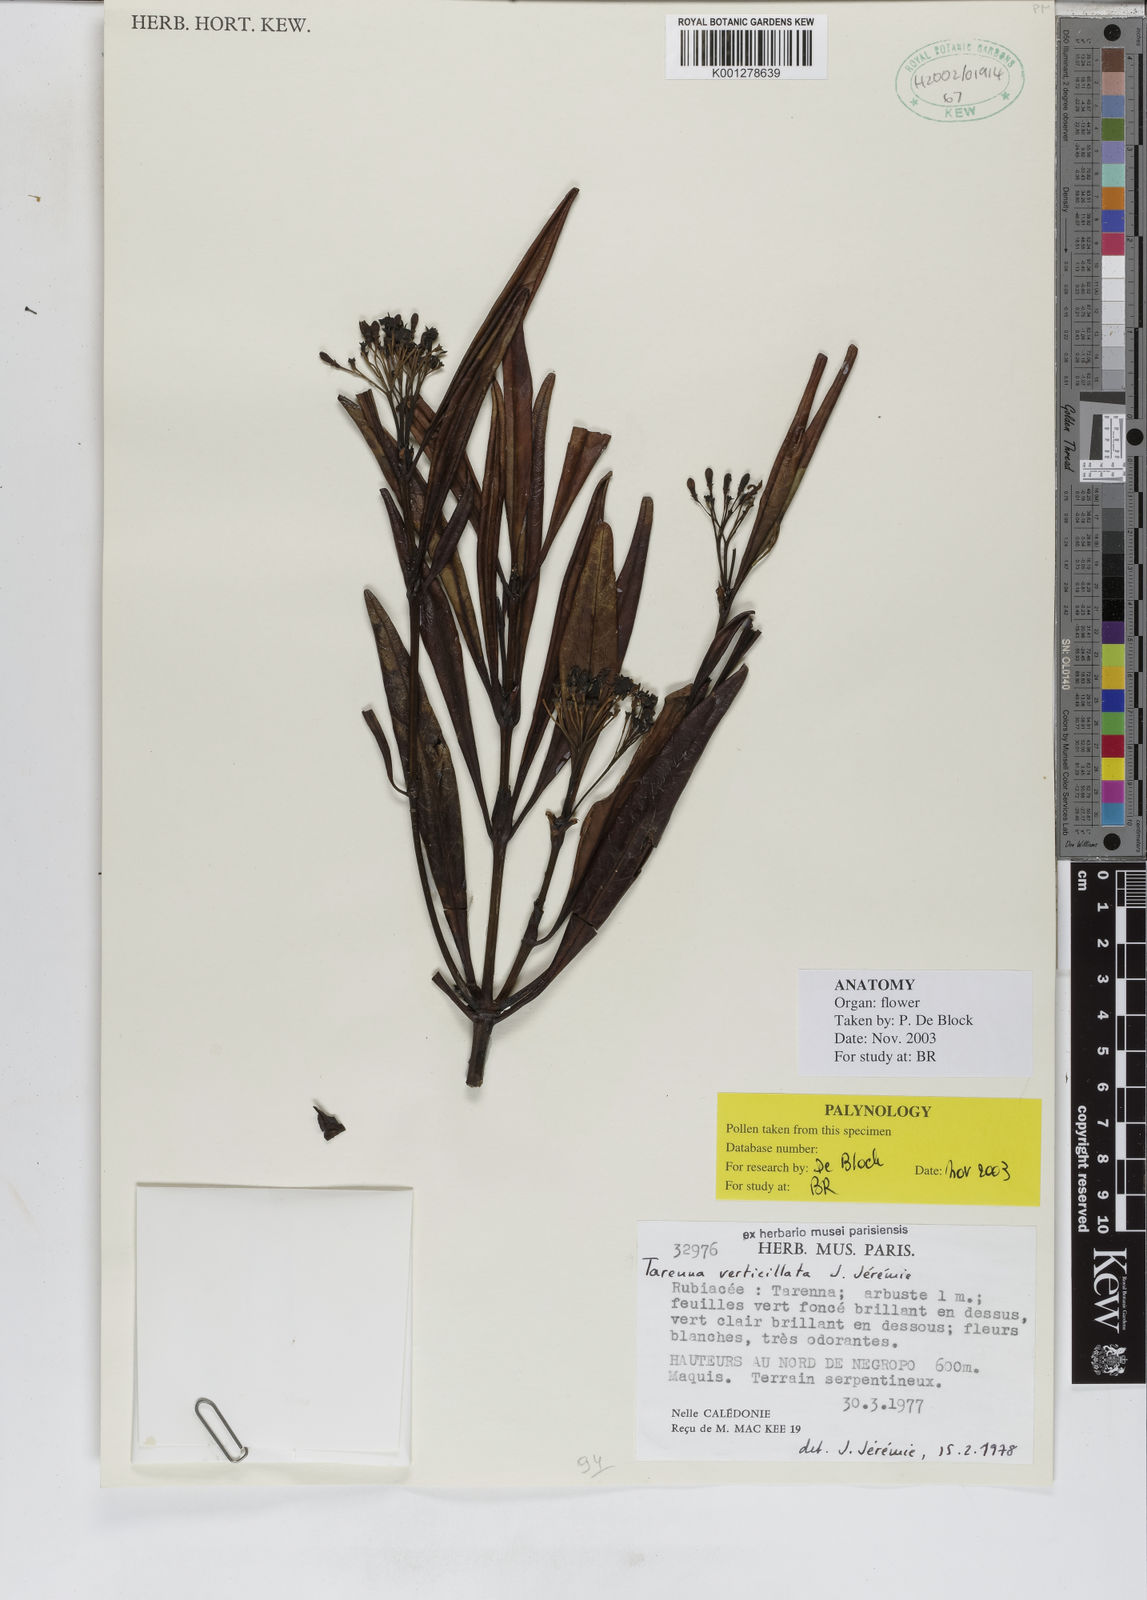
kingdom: Plantae
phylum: Tracheophyta
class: Magnoliopsida
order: Gentianales
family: Rubiaceae
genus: Tarenna
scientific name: Tarenna
